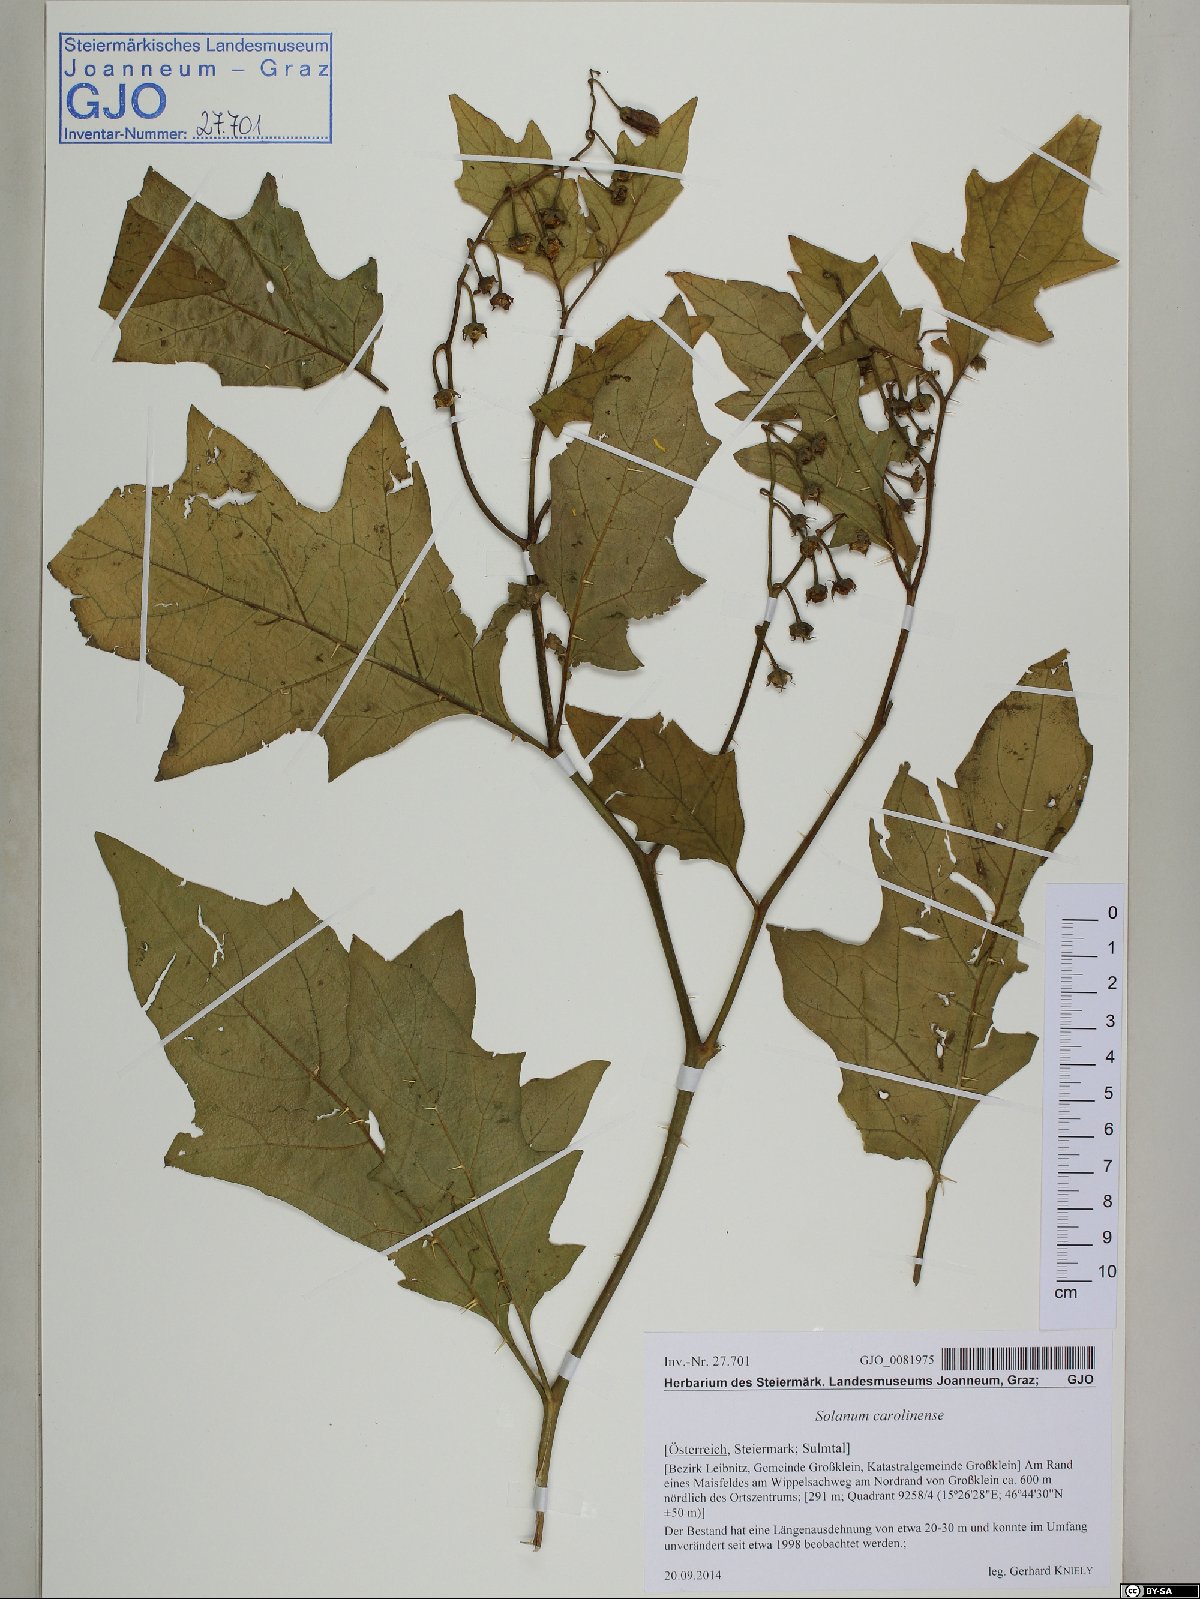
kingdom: Plantae
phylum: Tracheophyta
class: Magnoliopsida
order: Solanales
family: Solanaceae
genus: Solanum
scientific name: Solanum carolinense
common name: Horse-nettle
